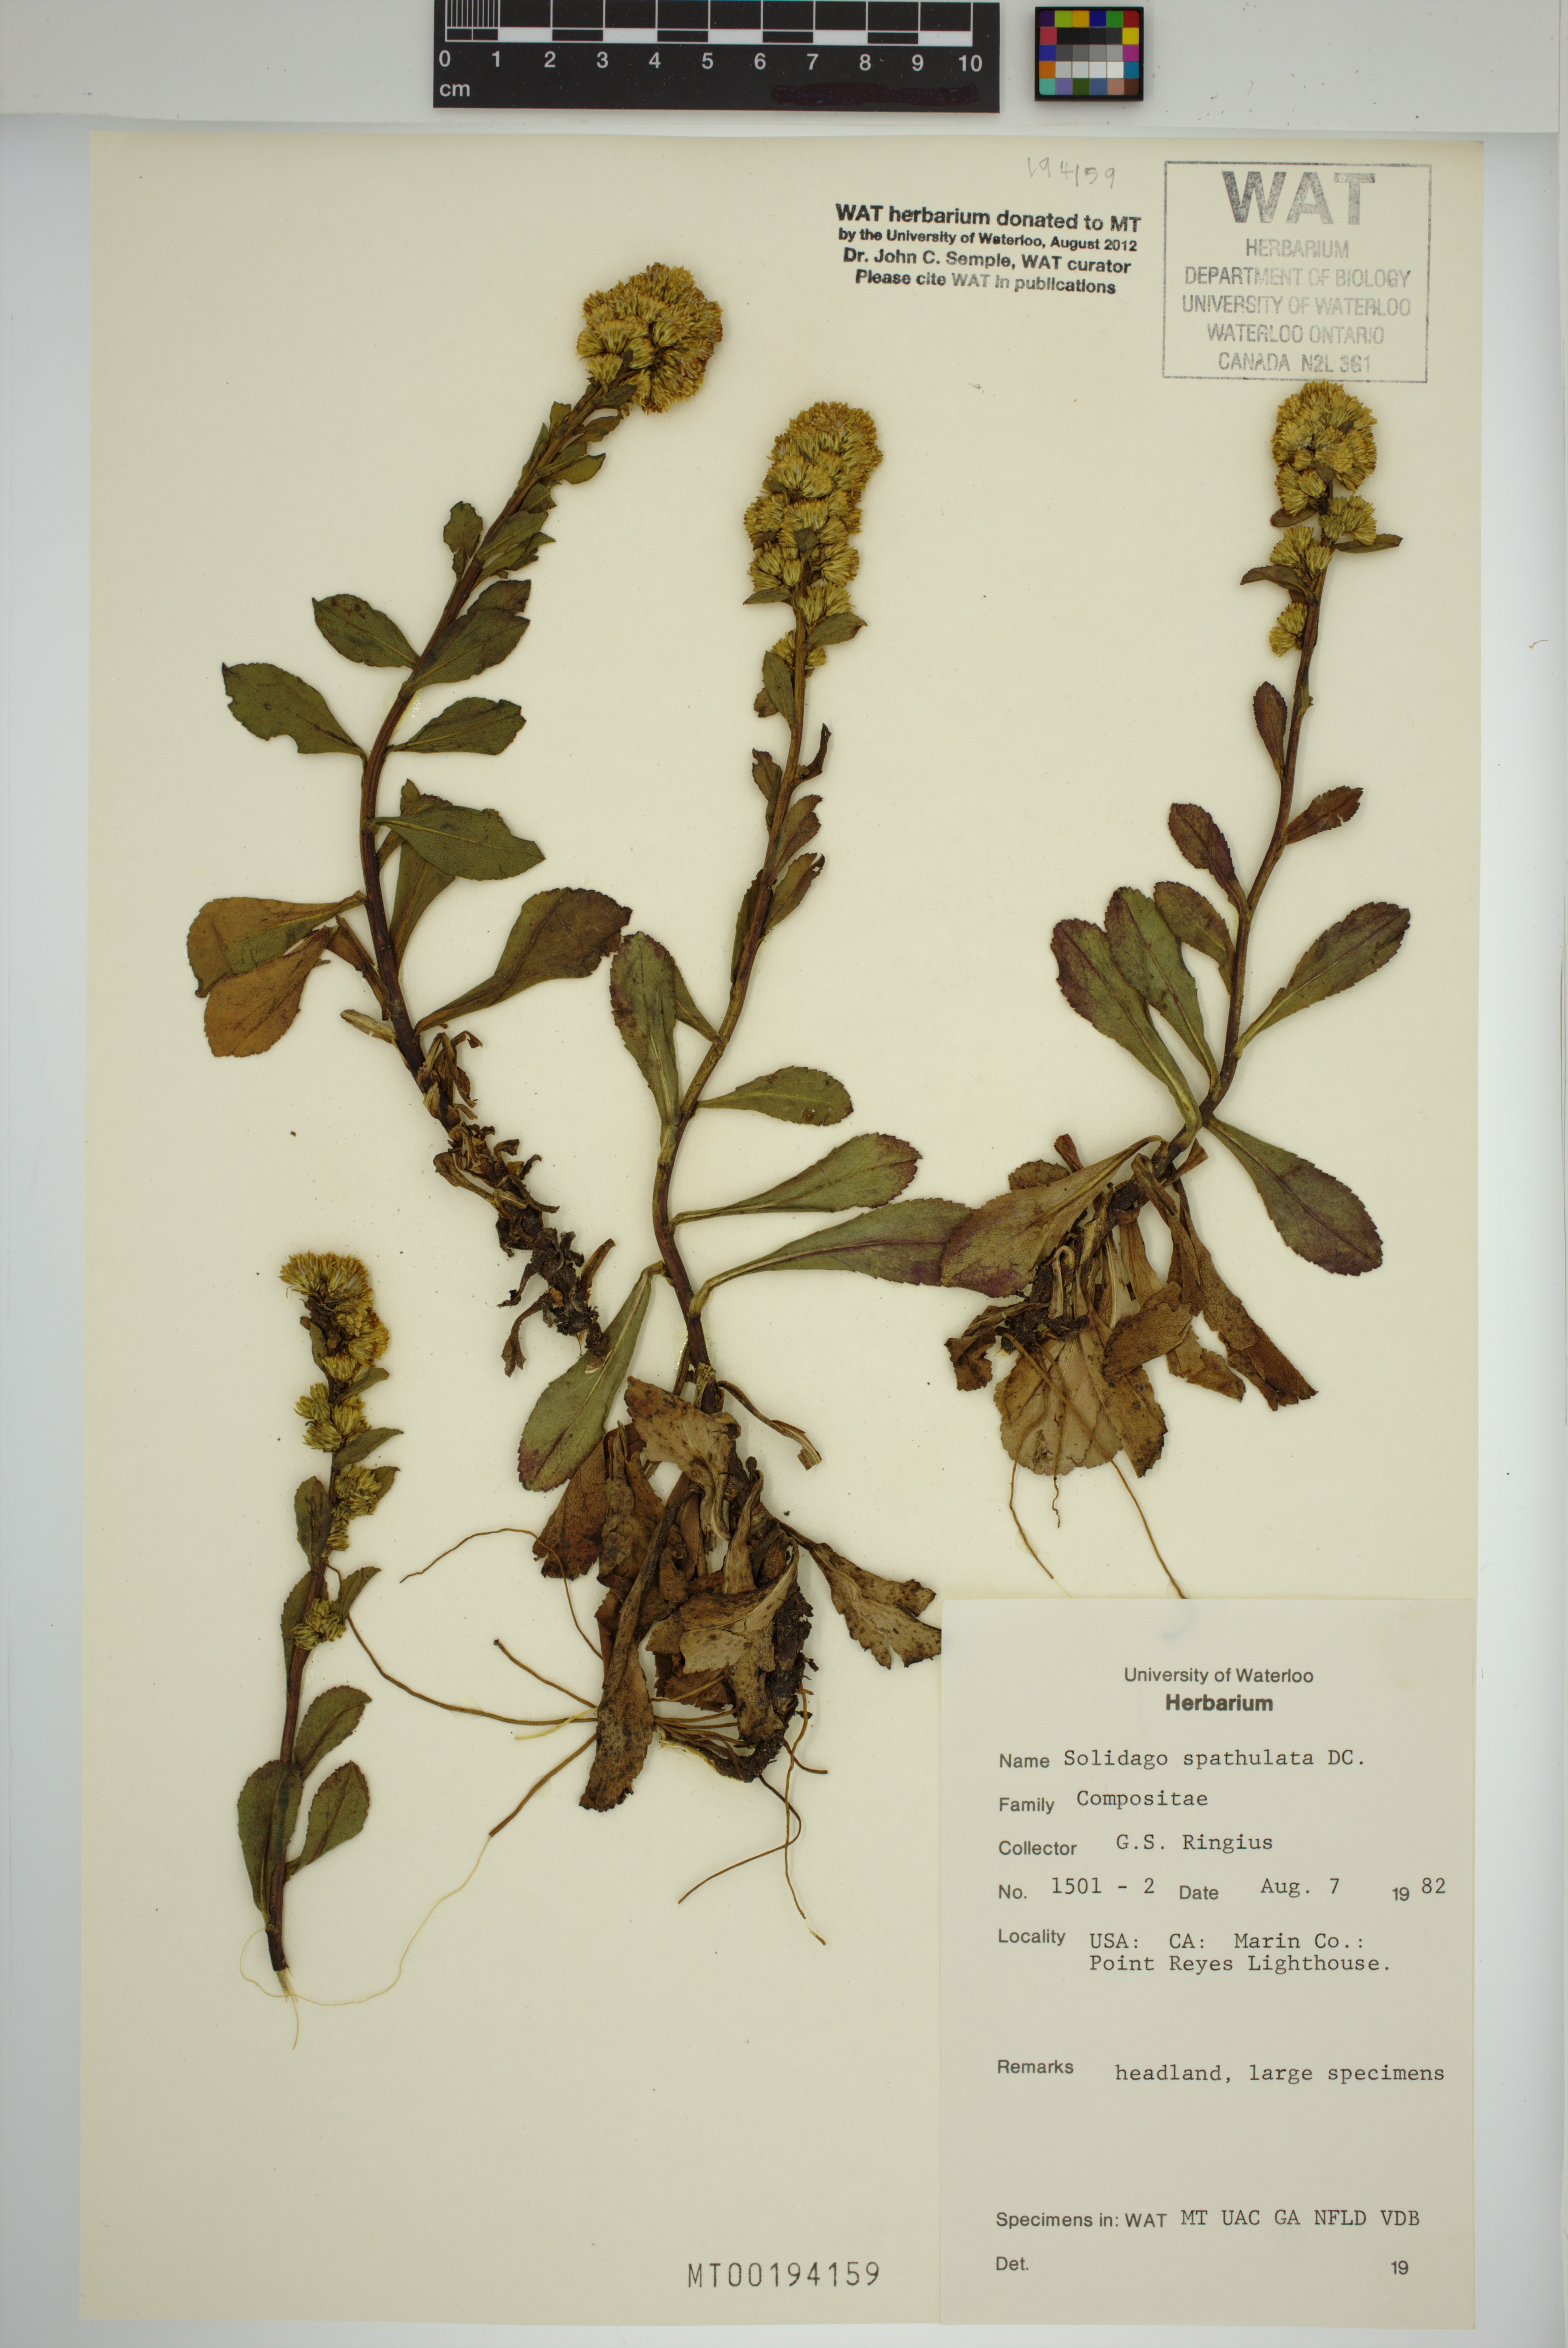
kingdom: Plantae
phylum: Tracheophyta
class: Magnoliopsida
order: Asterales
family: Asteraceae
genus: Solidago
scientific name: Solidago spathulata
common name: Coast goldenrod
